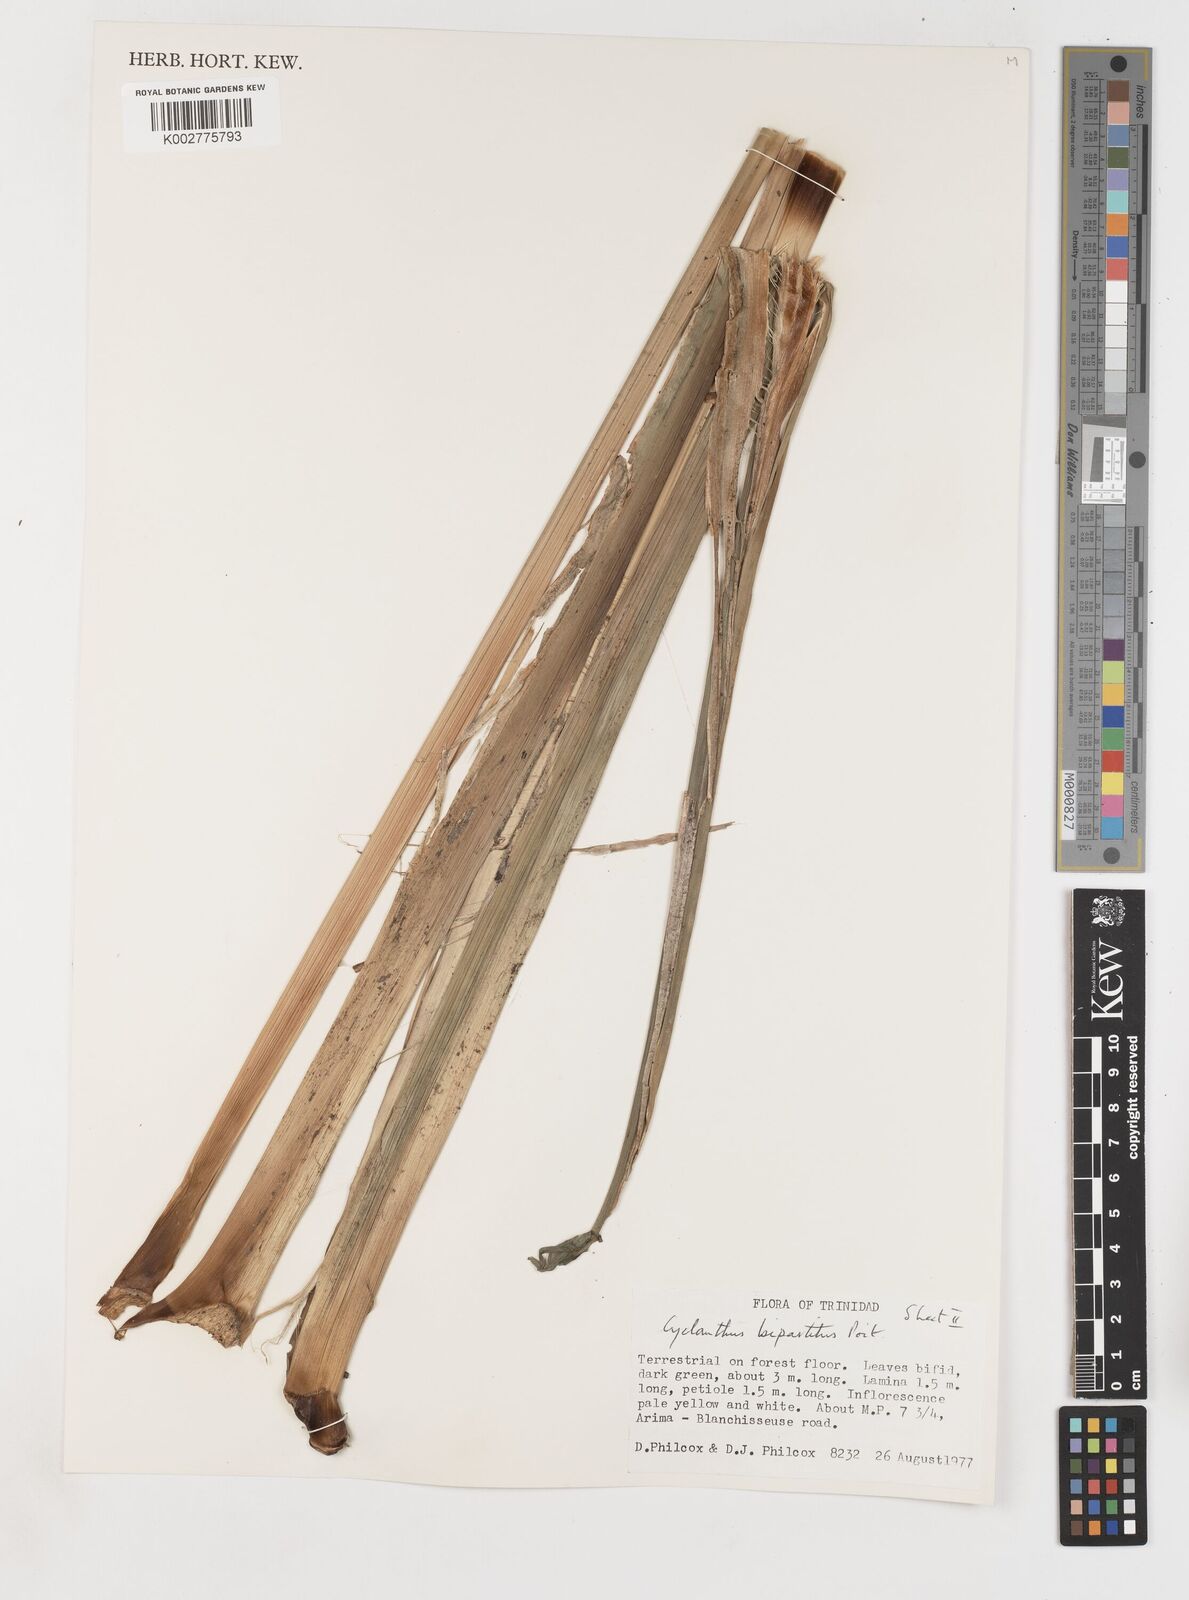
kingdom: Plantae
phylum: Tracheophyta
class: Liliopsida
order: Pandanales
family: Cyclanthaceae
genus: Cyclanthus
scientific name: Cyclanthus bipartitus
